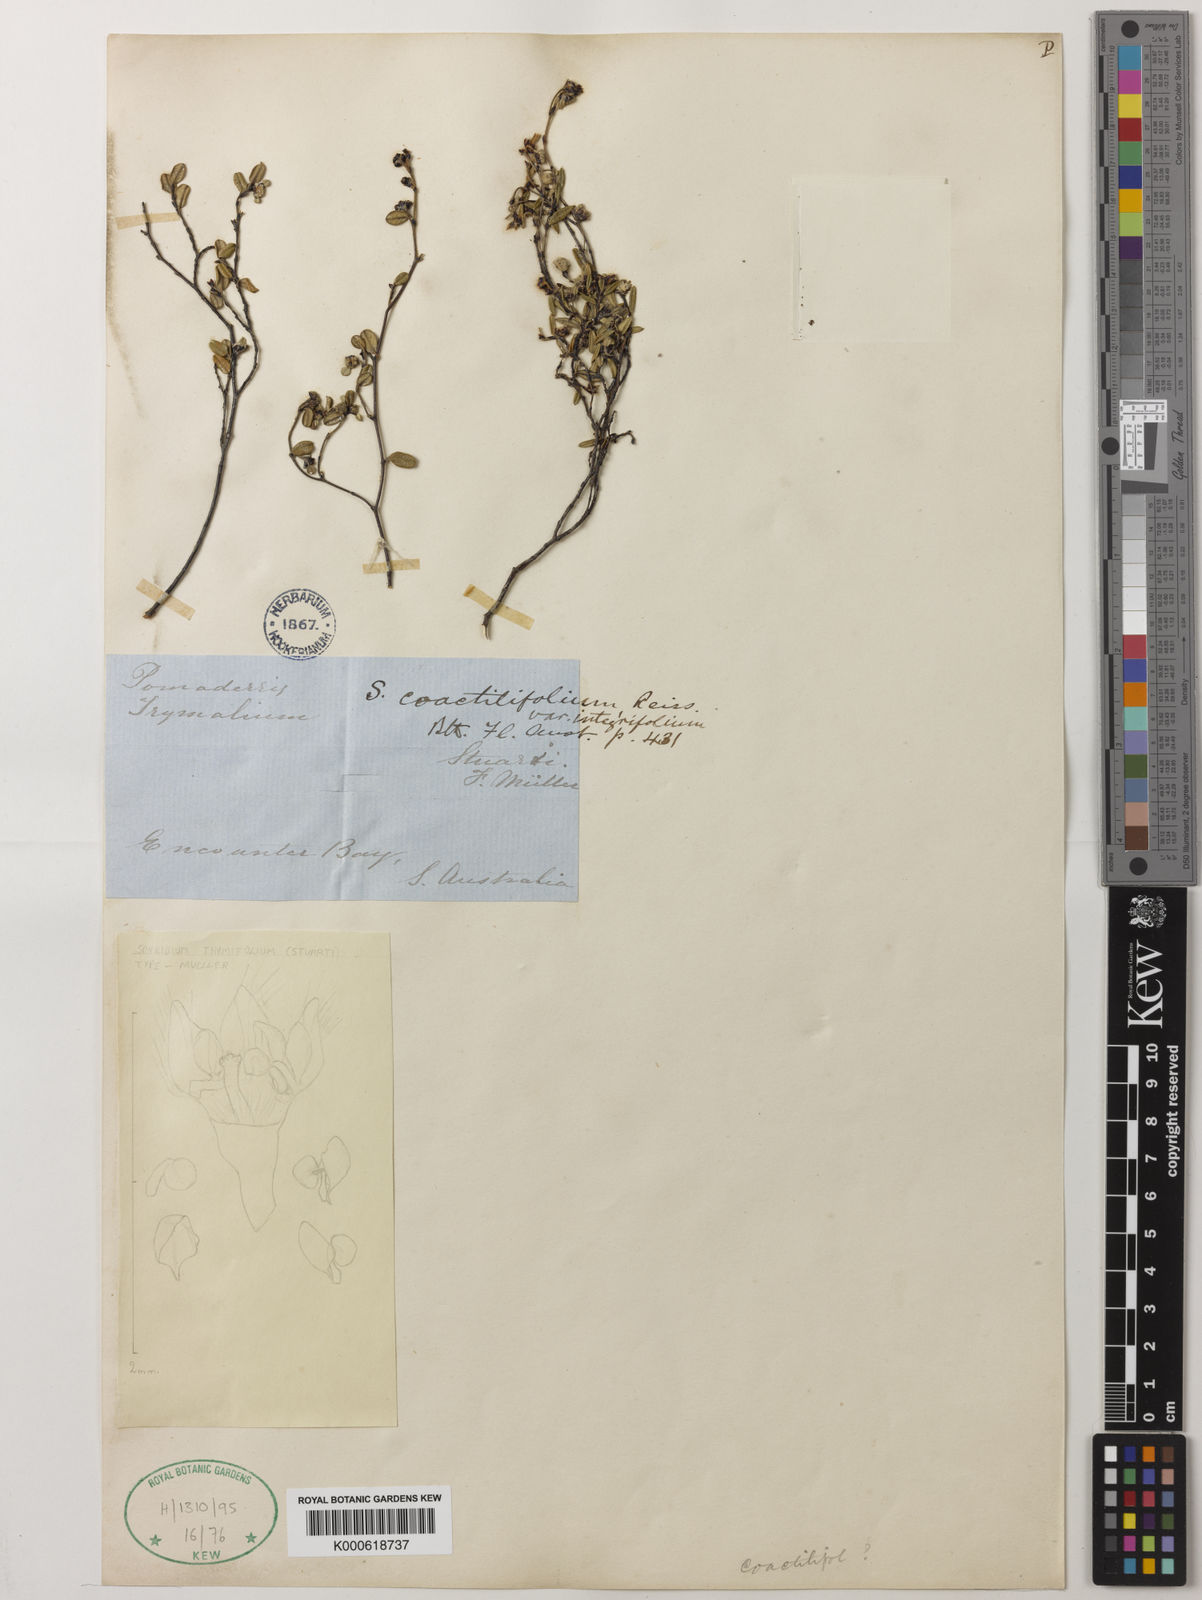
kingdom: Plantae
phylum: Tracheophyta
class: Magnoliopsida
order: Rosales
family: Rhamnaceae
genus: Spyridium
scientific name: Spyridium
